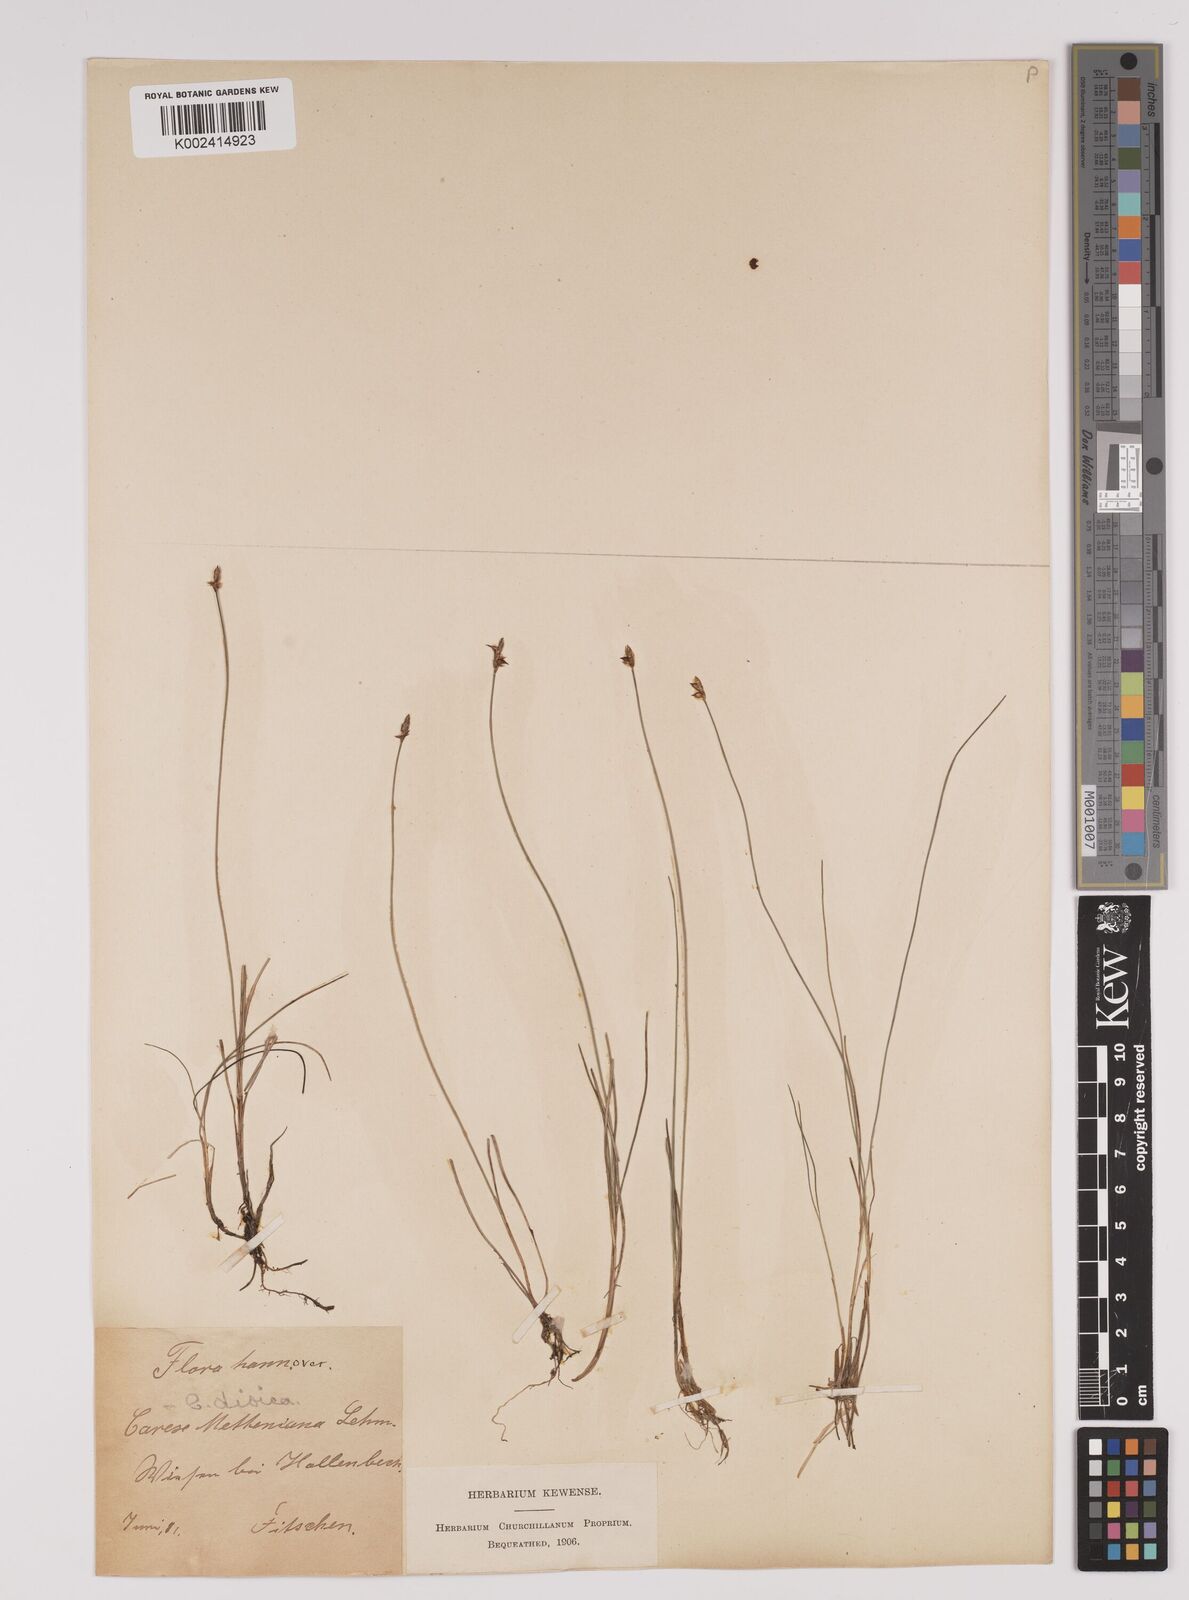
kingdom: Plantae
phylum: Tracheophyta
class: Liliopsida
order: Poales
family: Cyperaceae
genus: Carex
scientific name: Carex dioica
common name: Dioecious sedge
